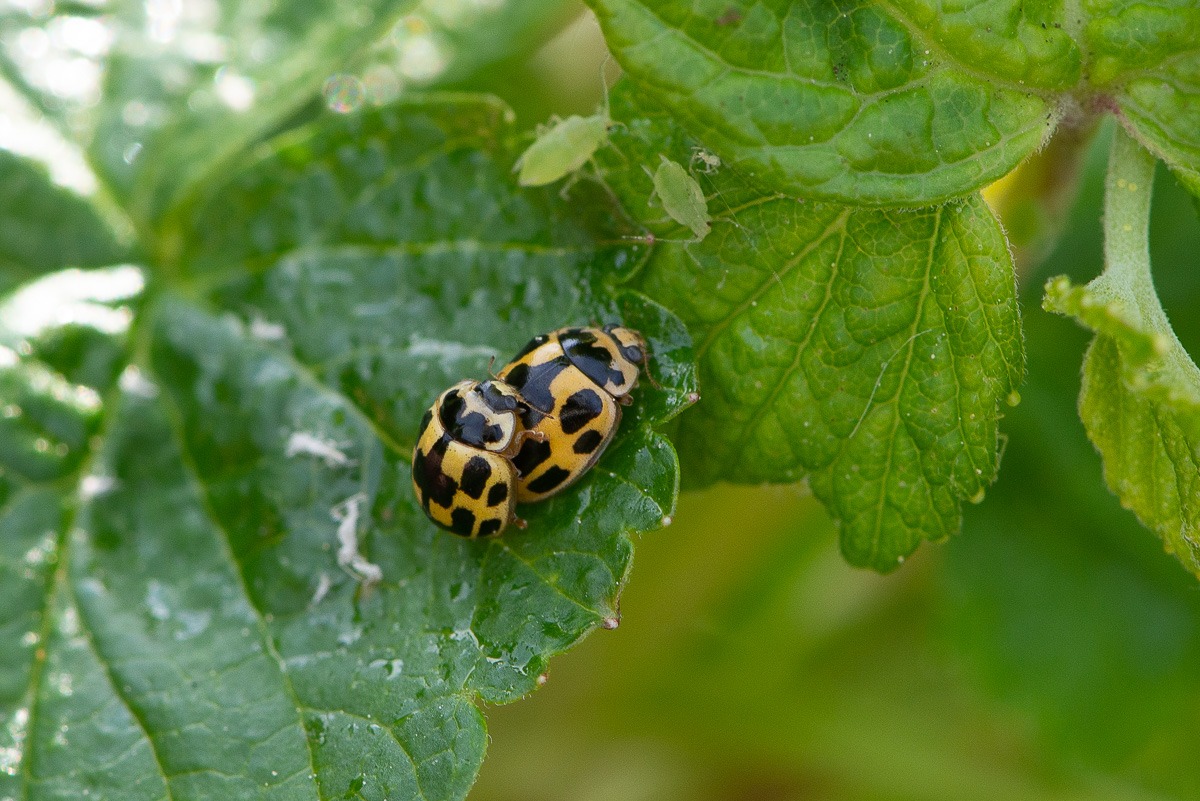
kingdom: Animalia
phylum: Arthropoda
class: Insecta
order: Coleoptera
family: Coccinellidae
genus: Propylaea
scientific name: Propylaea quatuordecimpunctata
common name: Skakbræt
